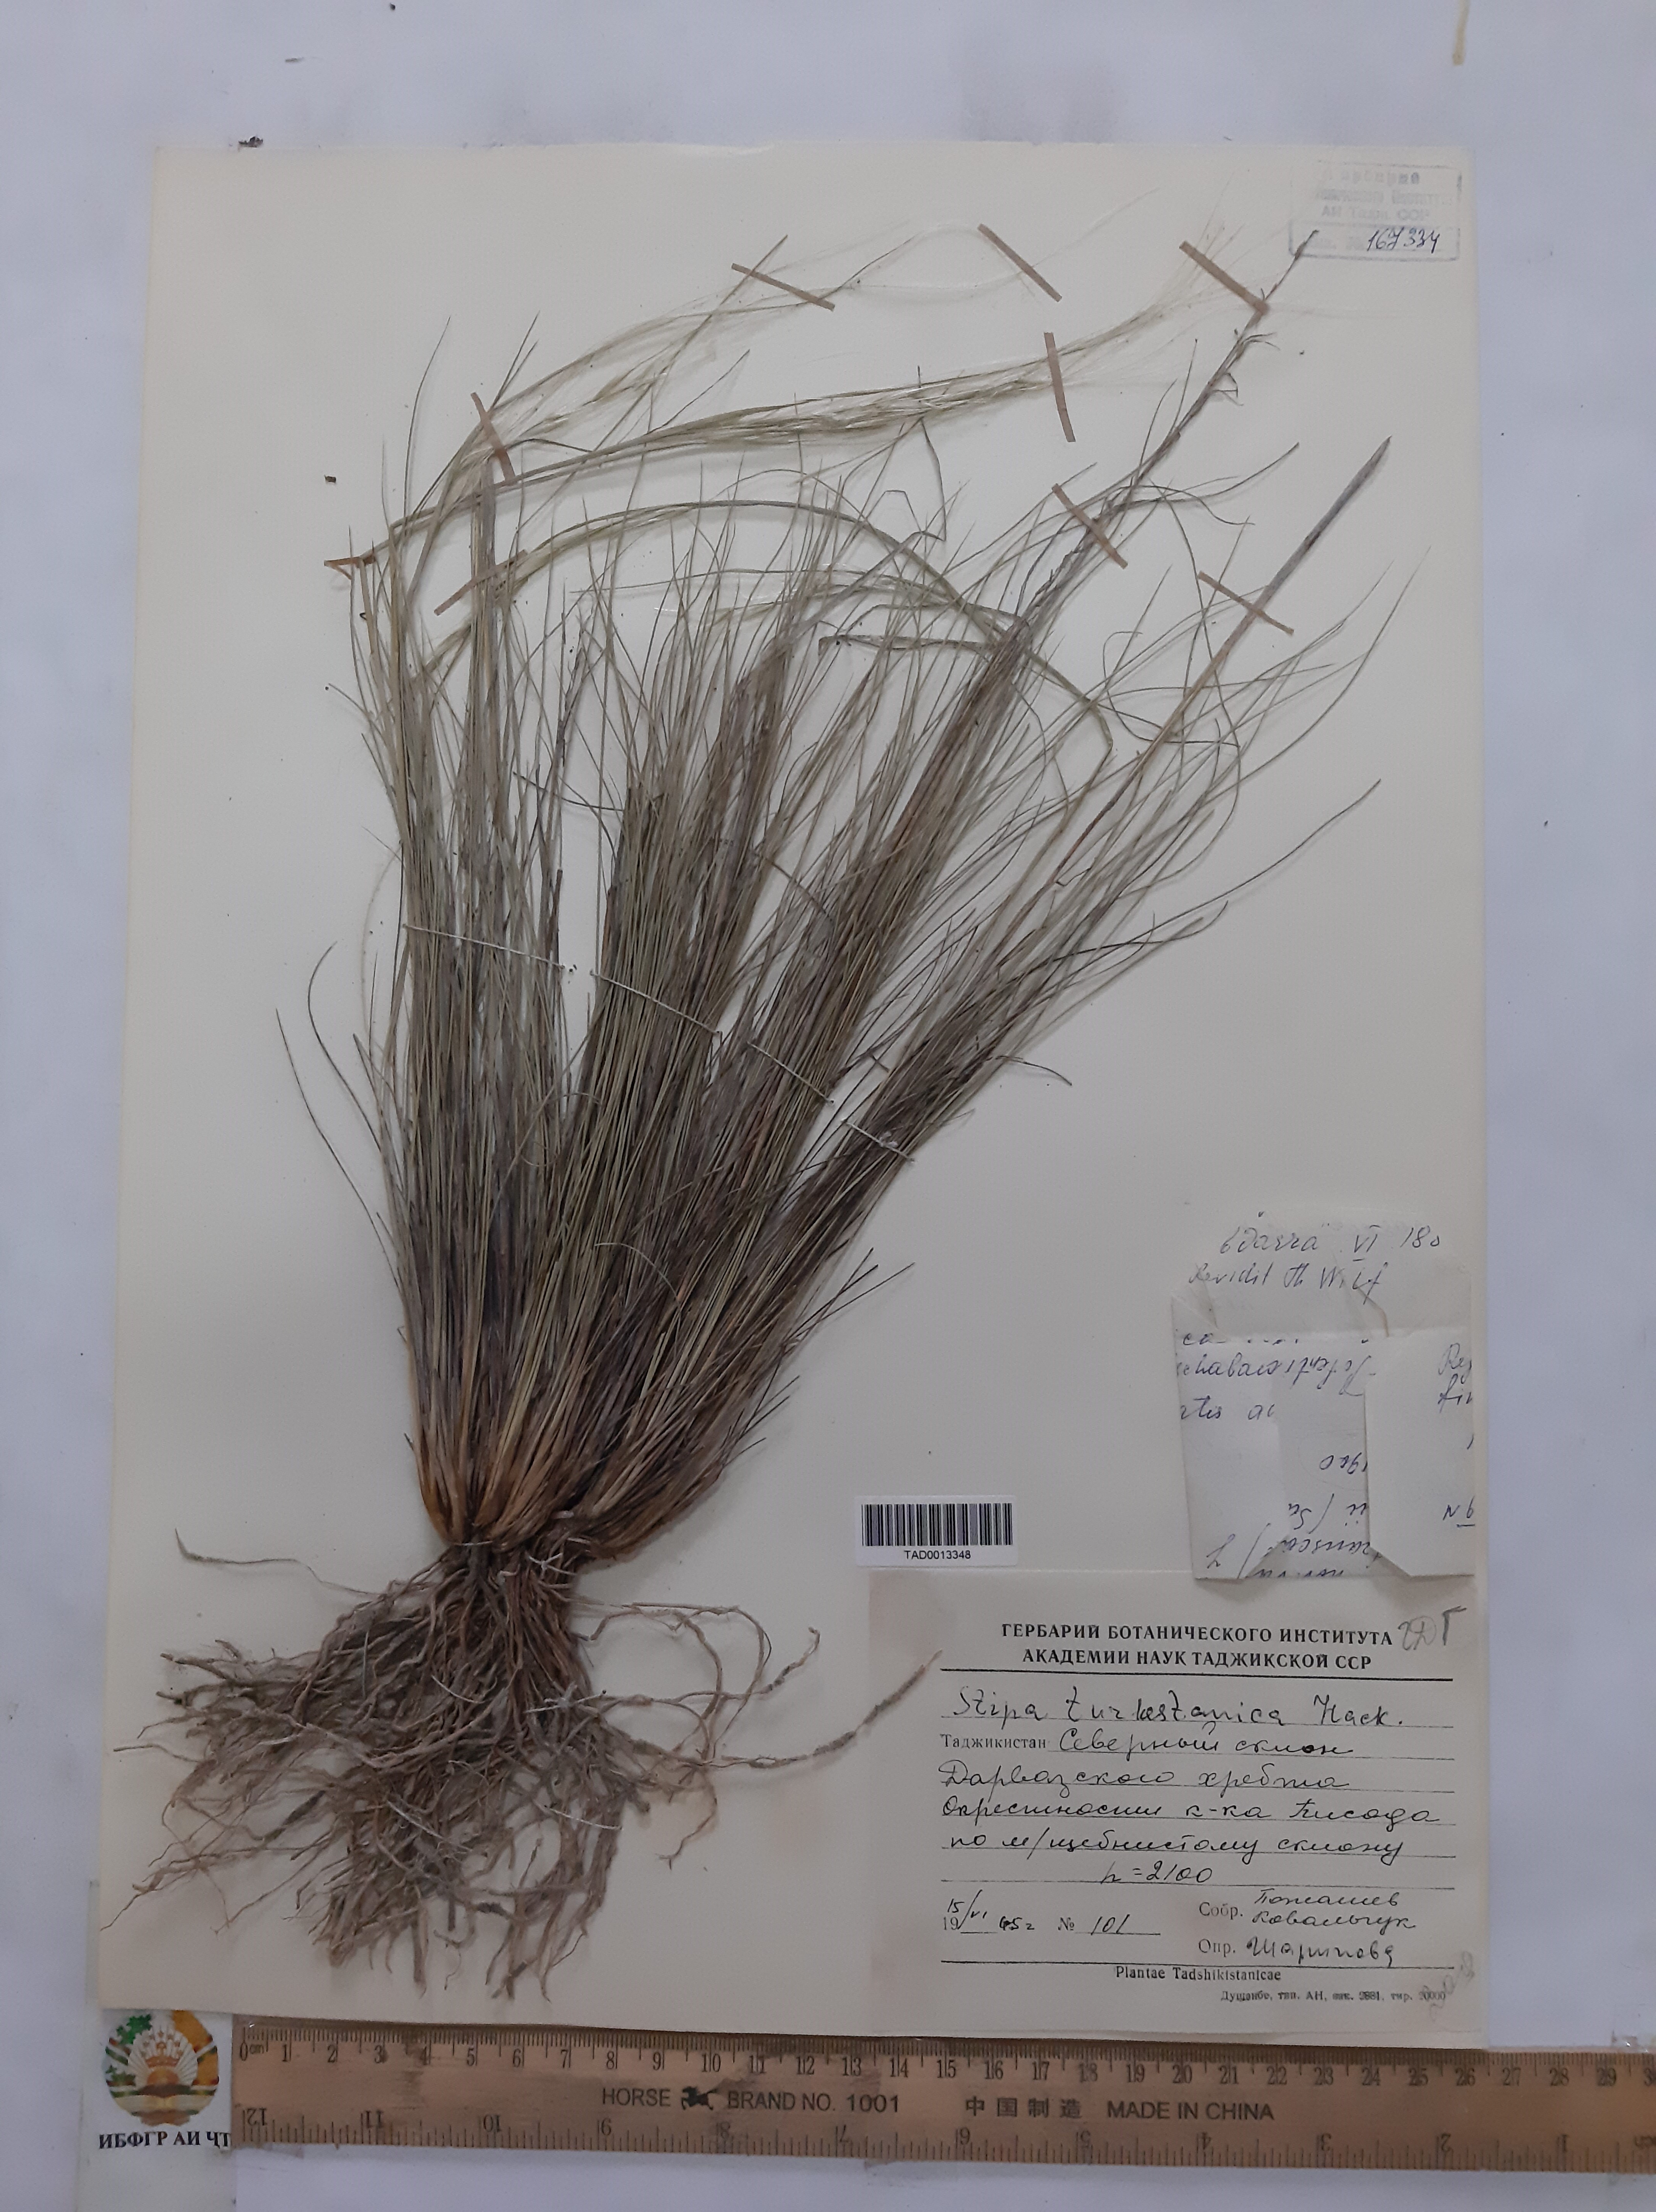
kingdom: Plantae
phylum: Tracheophyta
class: Liliopsida
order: Poales
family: Poaceae
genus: Stipa
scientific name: Stipa turkestanica
